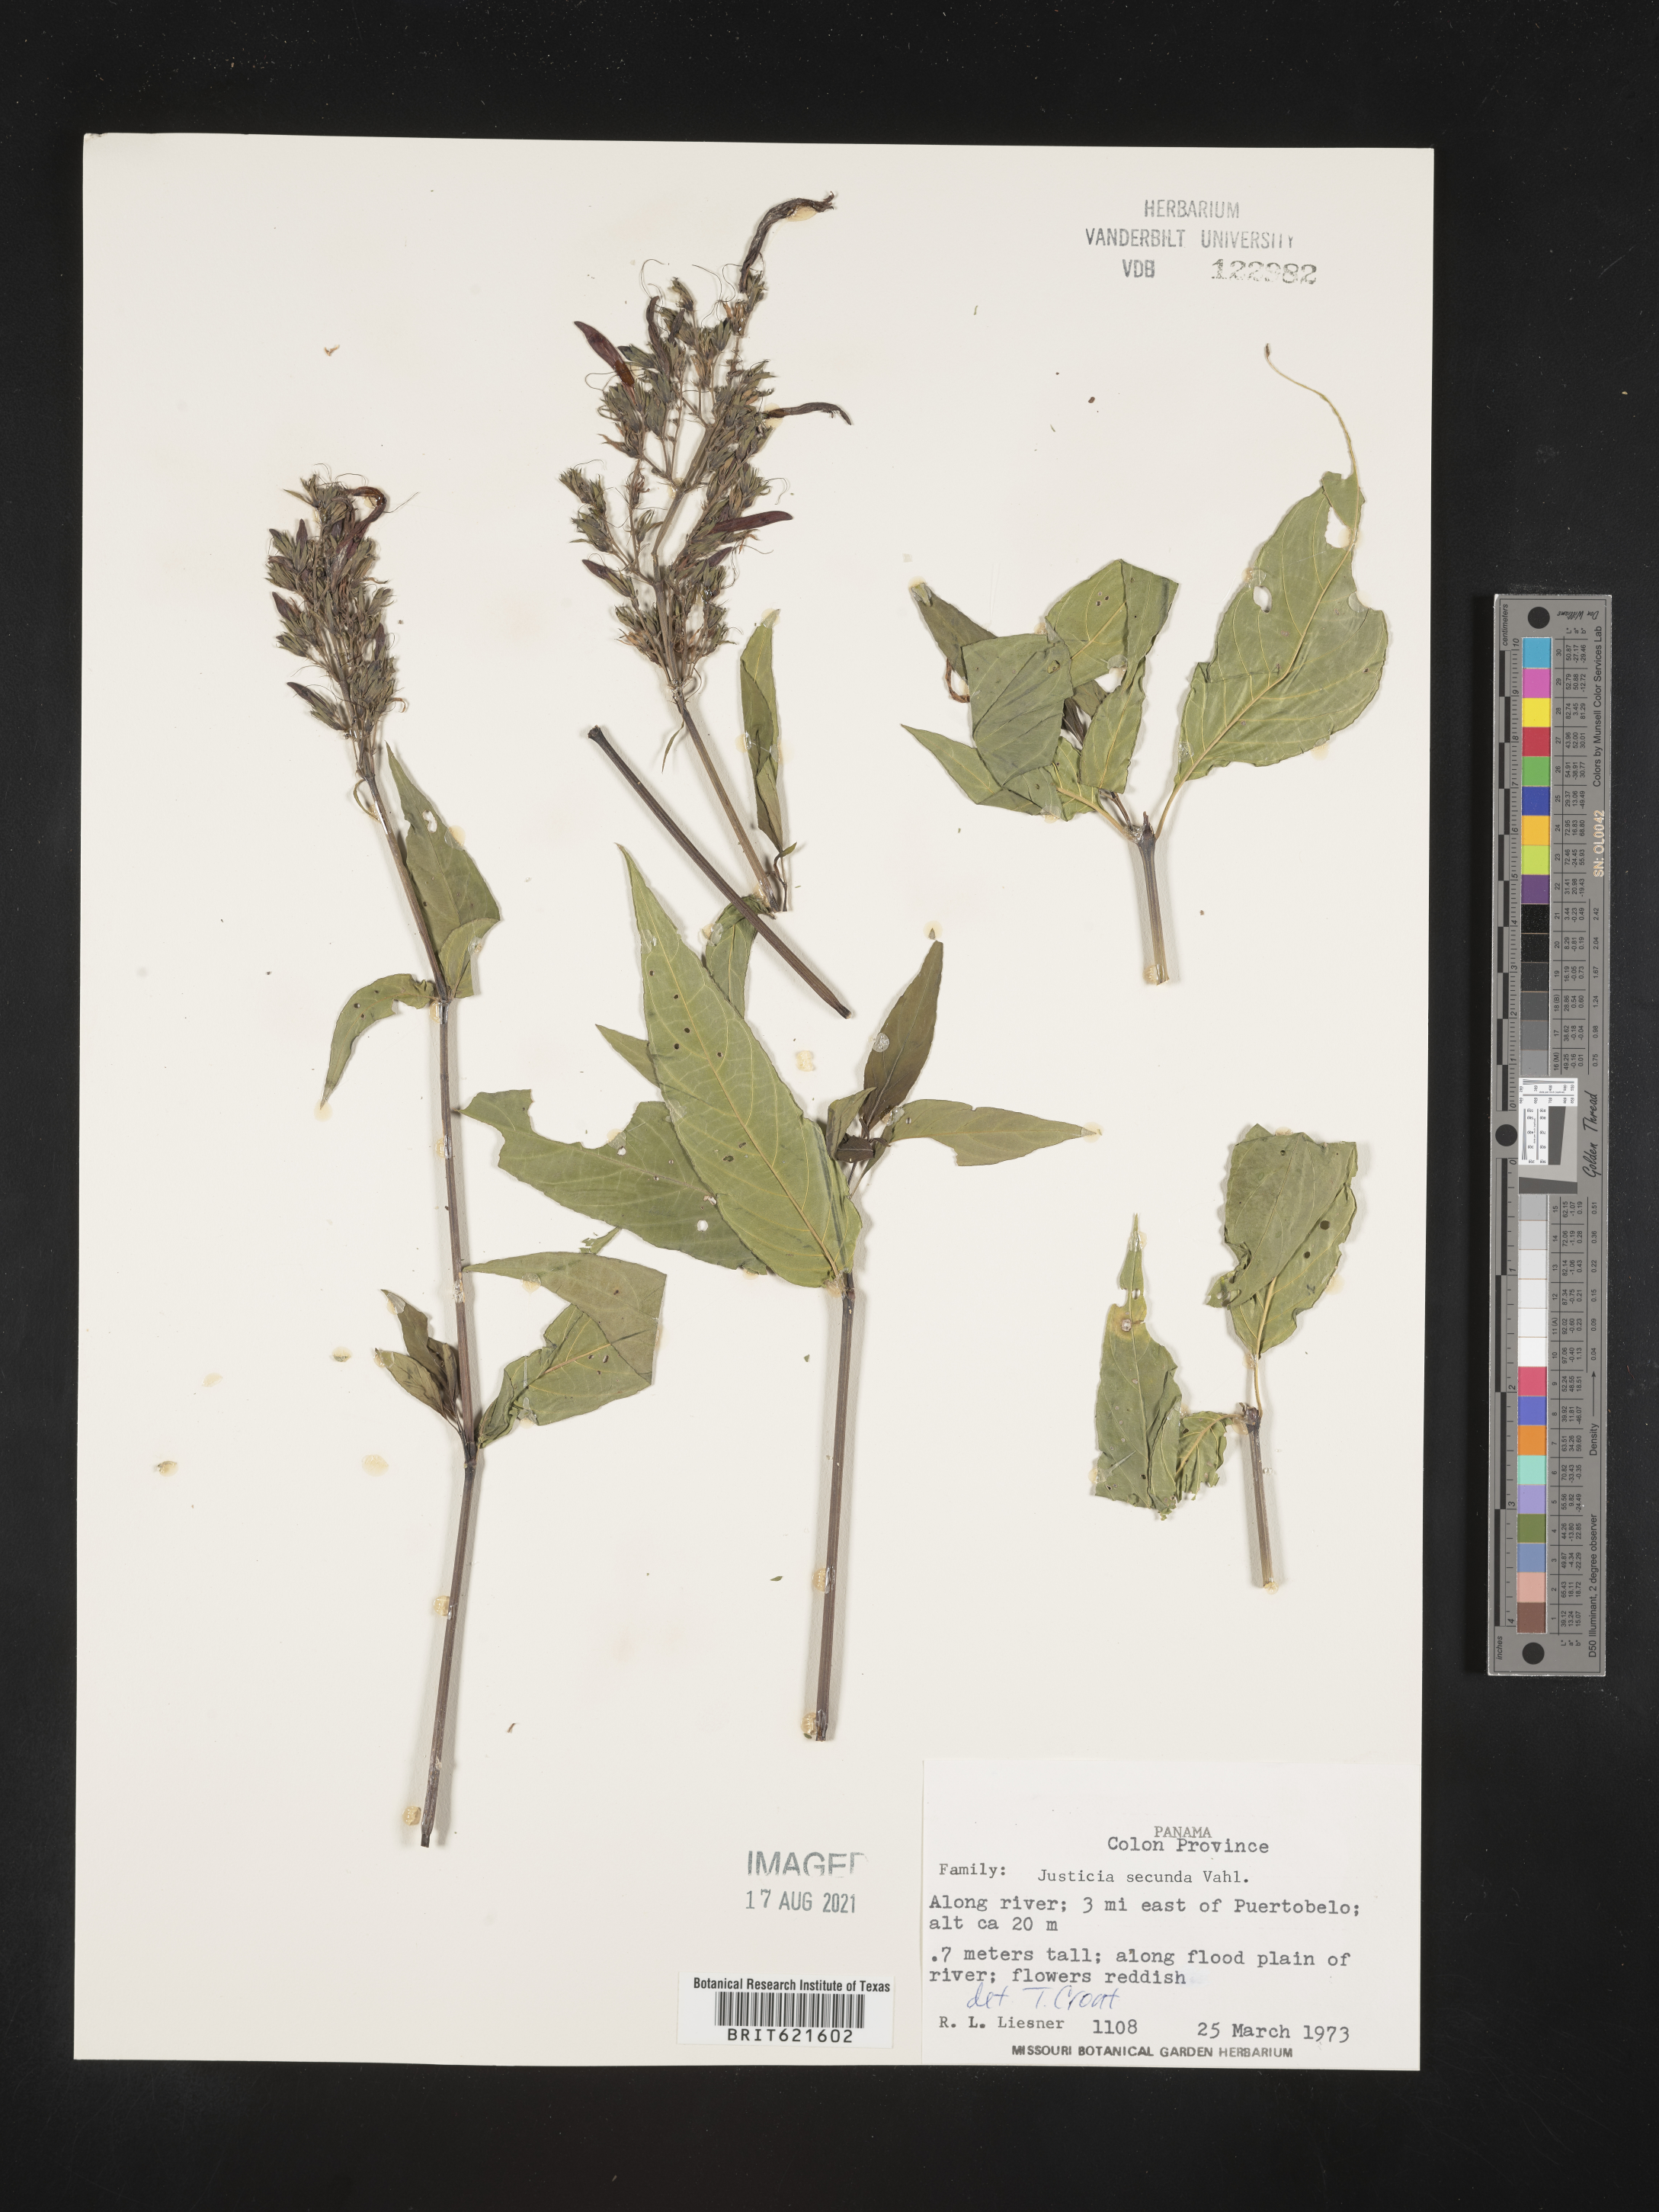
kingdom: Plantae
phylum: Tracheophyta
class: Magnoliopsida
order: Lamiales
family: Acanthaceae
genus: Justicia
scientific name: Justicia secunda
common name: Blood root
